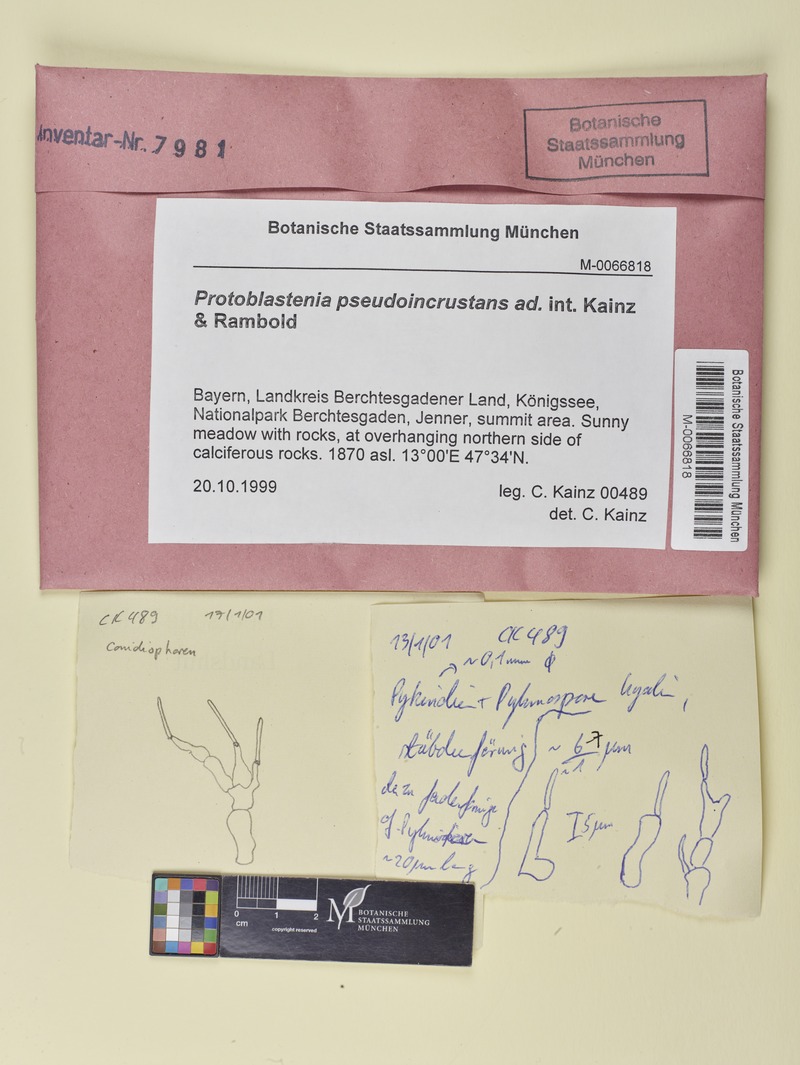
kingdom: Fungi
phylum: Ascomycota
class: Lecanoromycetes
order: Lecanorales
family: Psoraceae
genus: Protoblastenia
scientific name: Protoblastenia
